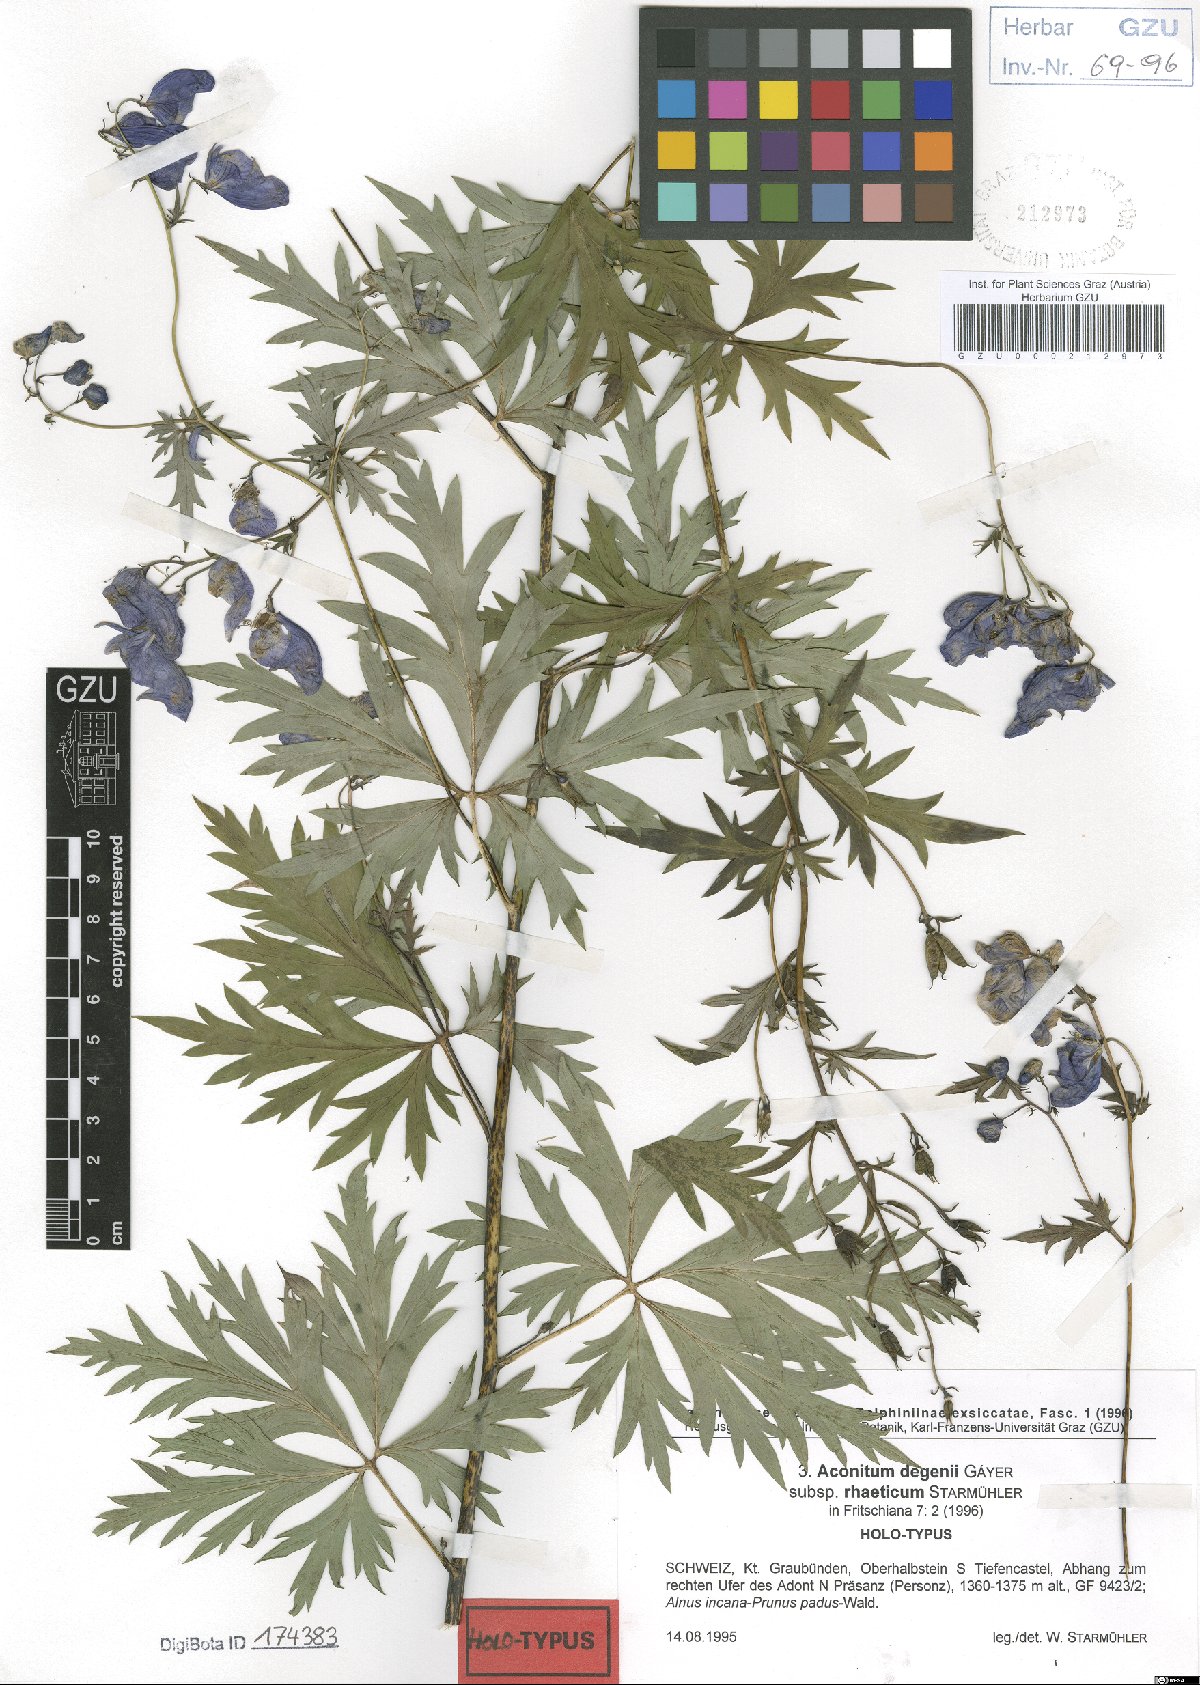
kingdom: Plantae
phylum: Tracheophyta
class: Magnoliopsida
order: Ranunculales
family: Ranunculaceae
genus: Aconitum
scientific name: Aconitum degenii
